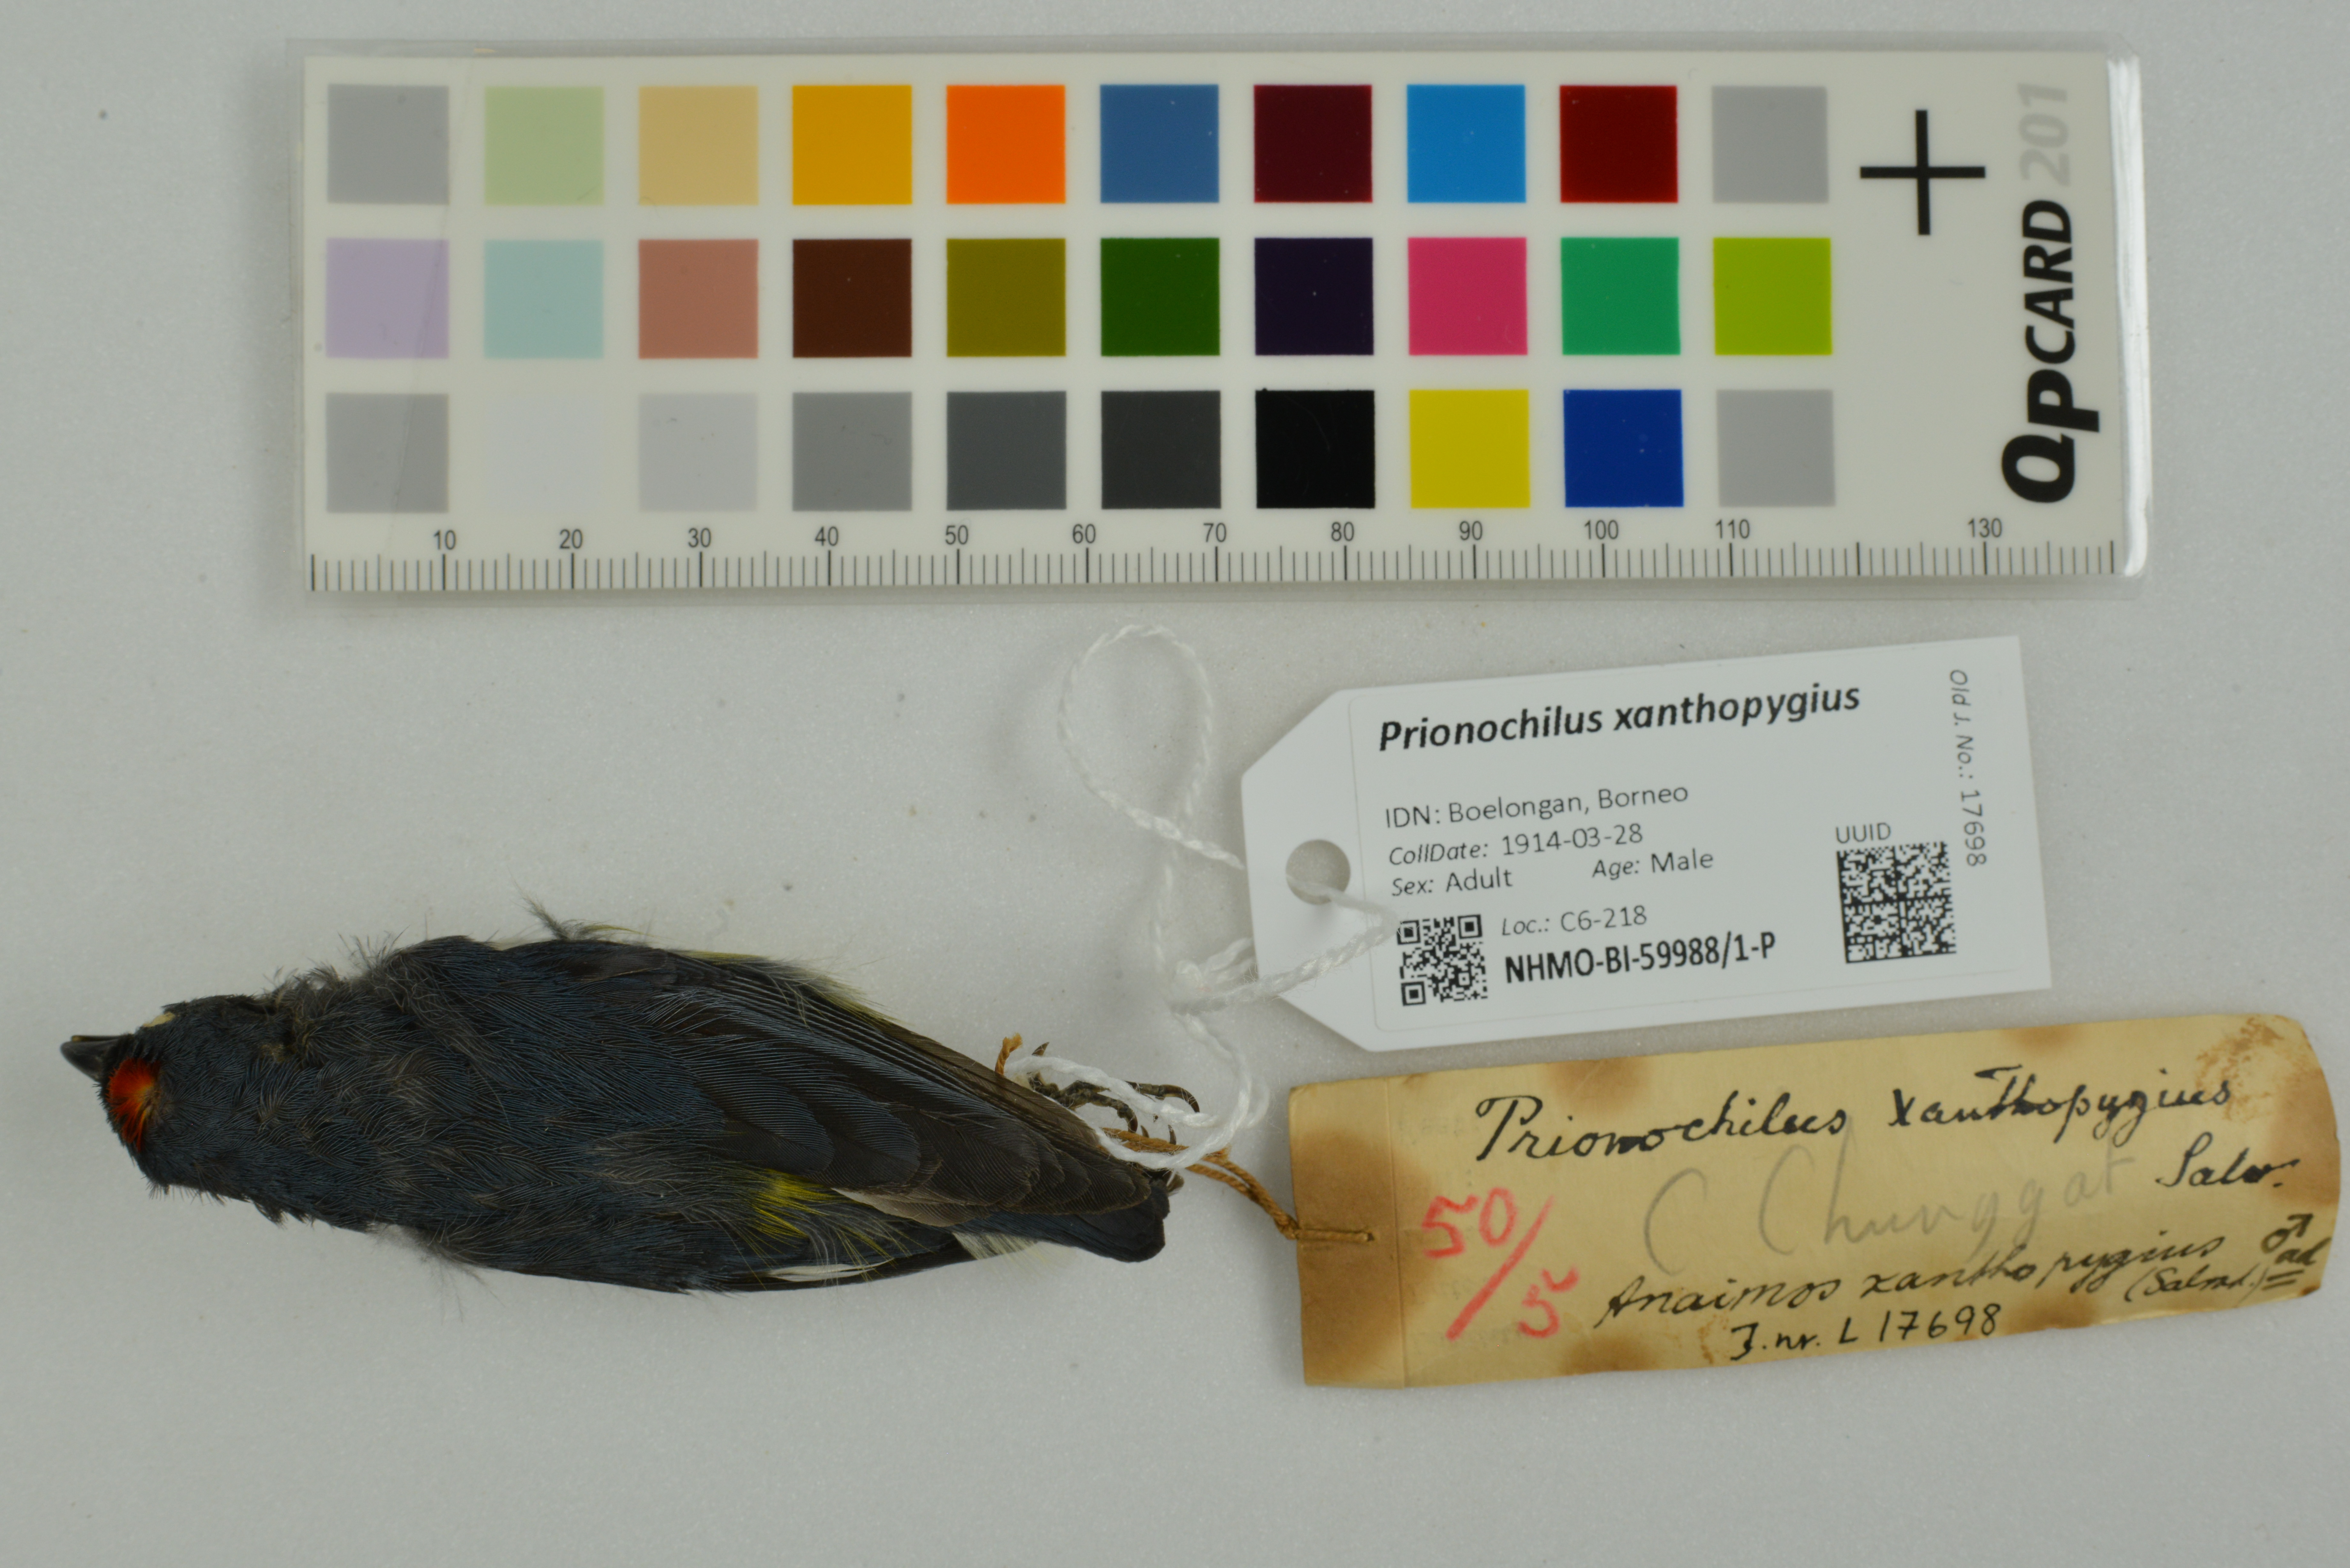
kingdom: Animalia
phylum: Chordata
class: Aves
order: Passeriformes
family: Dicaeidae
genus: Prionochilus
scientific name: Prionochilus xanthopygius
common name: Yellow-rumped flowerpecker
